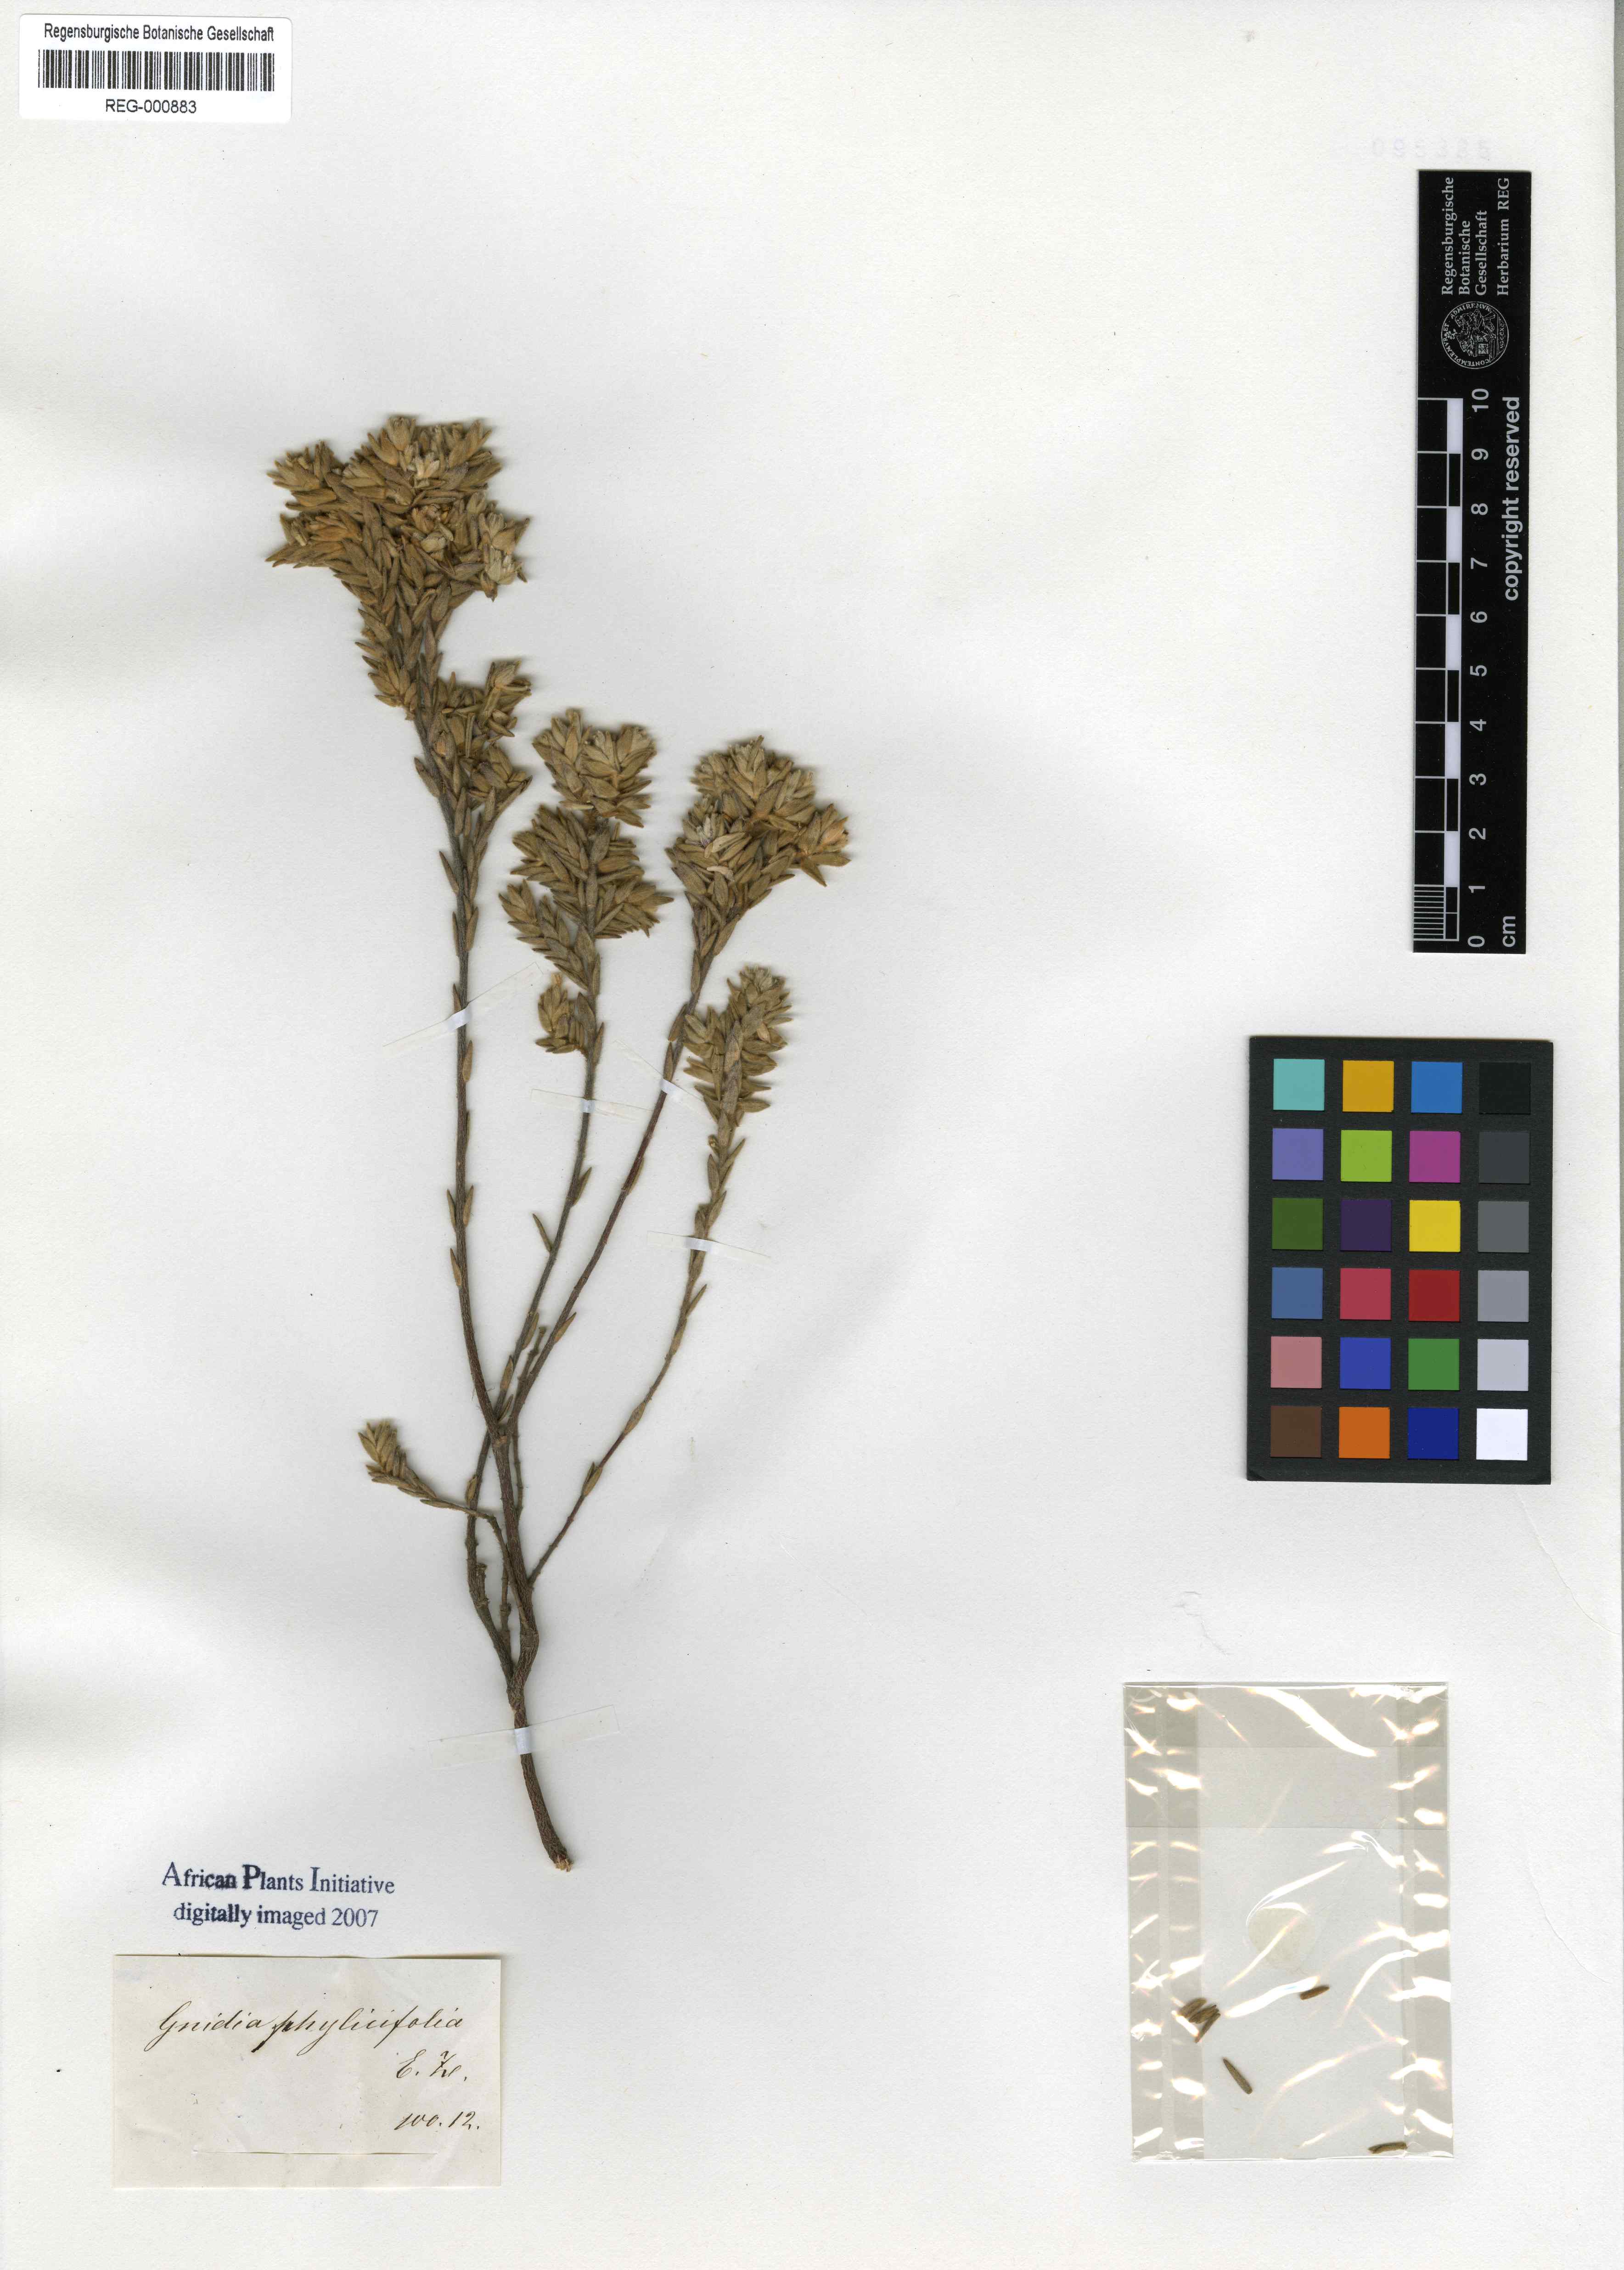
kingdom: Plantae
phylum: Tracheophyta
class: Magnoliopsida
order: Malvales
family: Thymelaeaceae
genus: Gnidia
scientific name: Gnidia sericea
